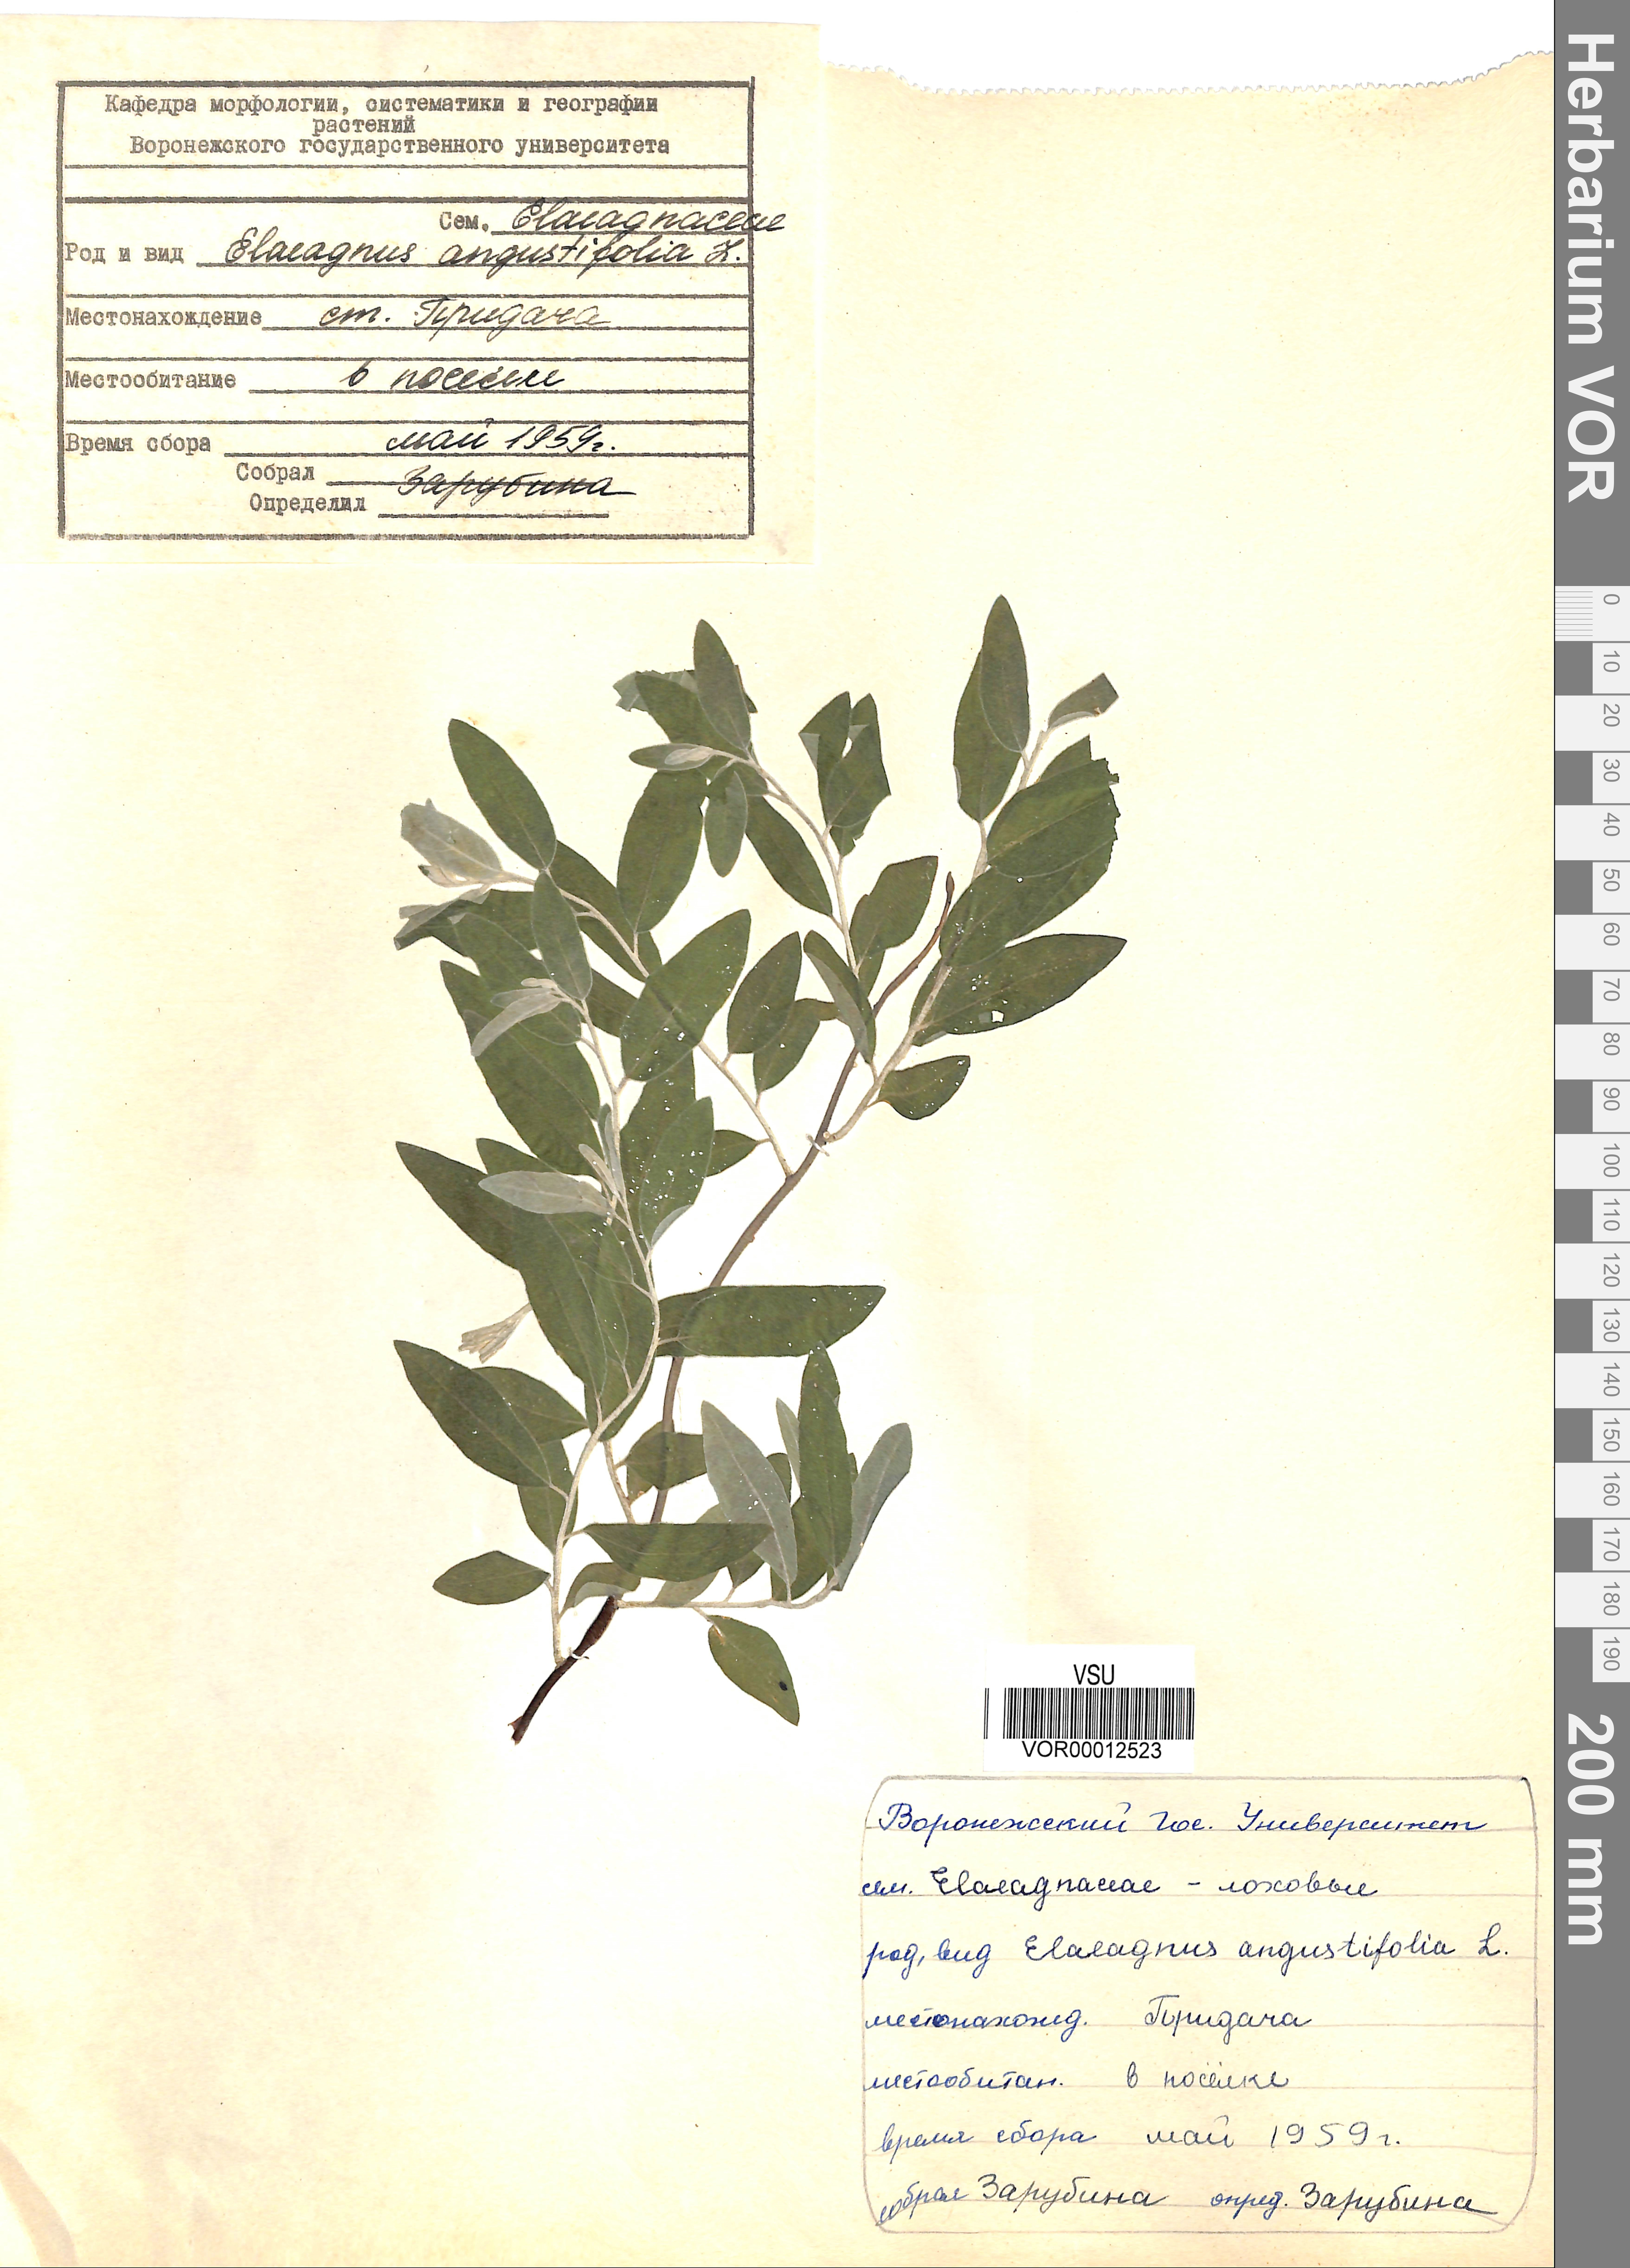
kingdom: Plantae
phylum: Tracheophyta
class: Magnoliopsida
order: Rosales
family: Elaeagnaceae
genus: Elaeagnus
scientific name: Elaeagnus angustifolia
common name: Russian olive
